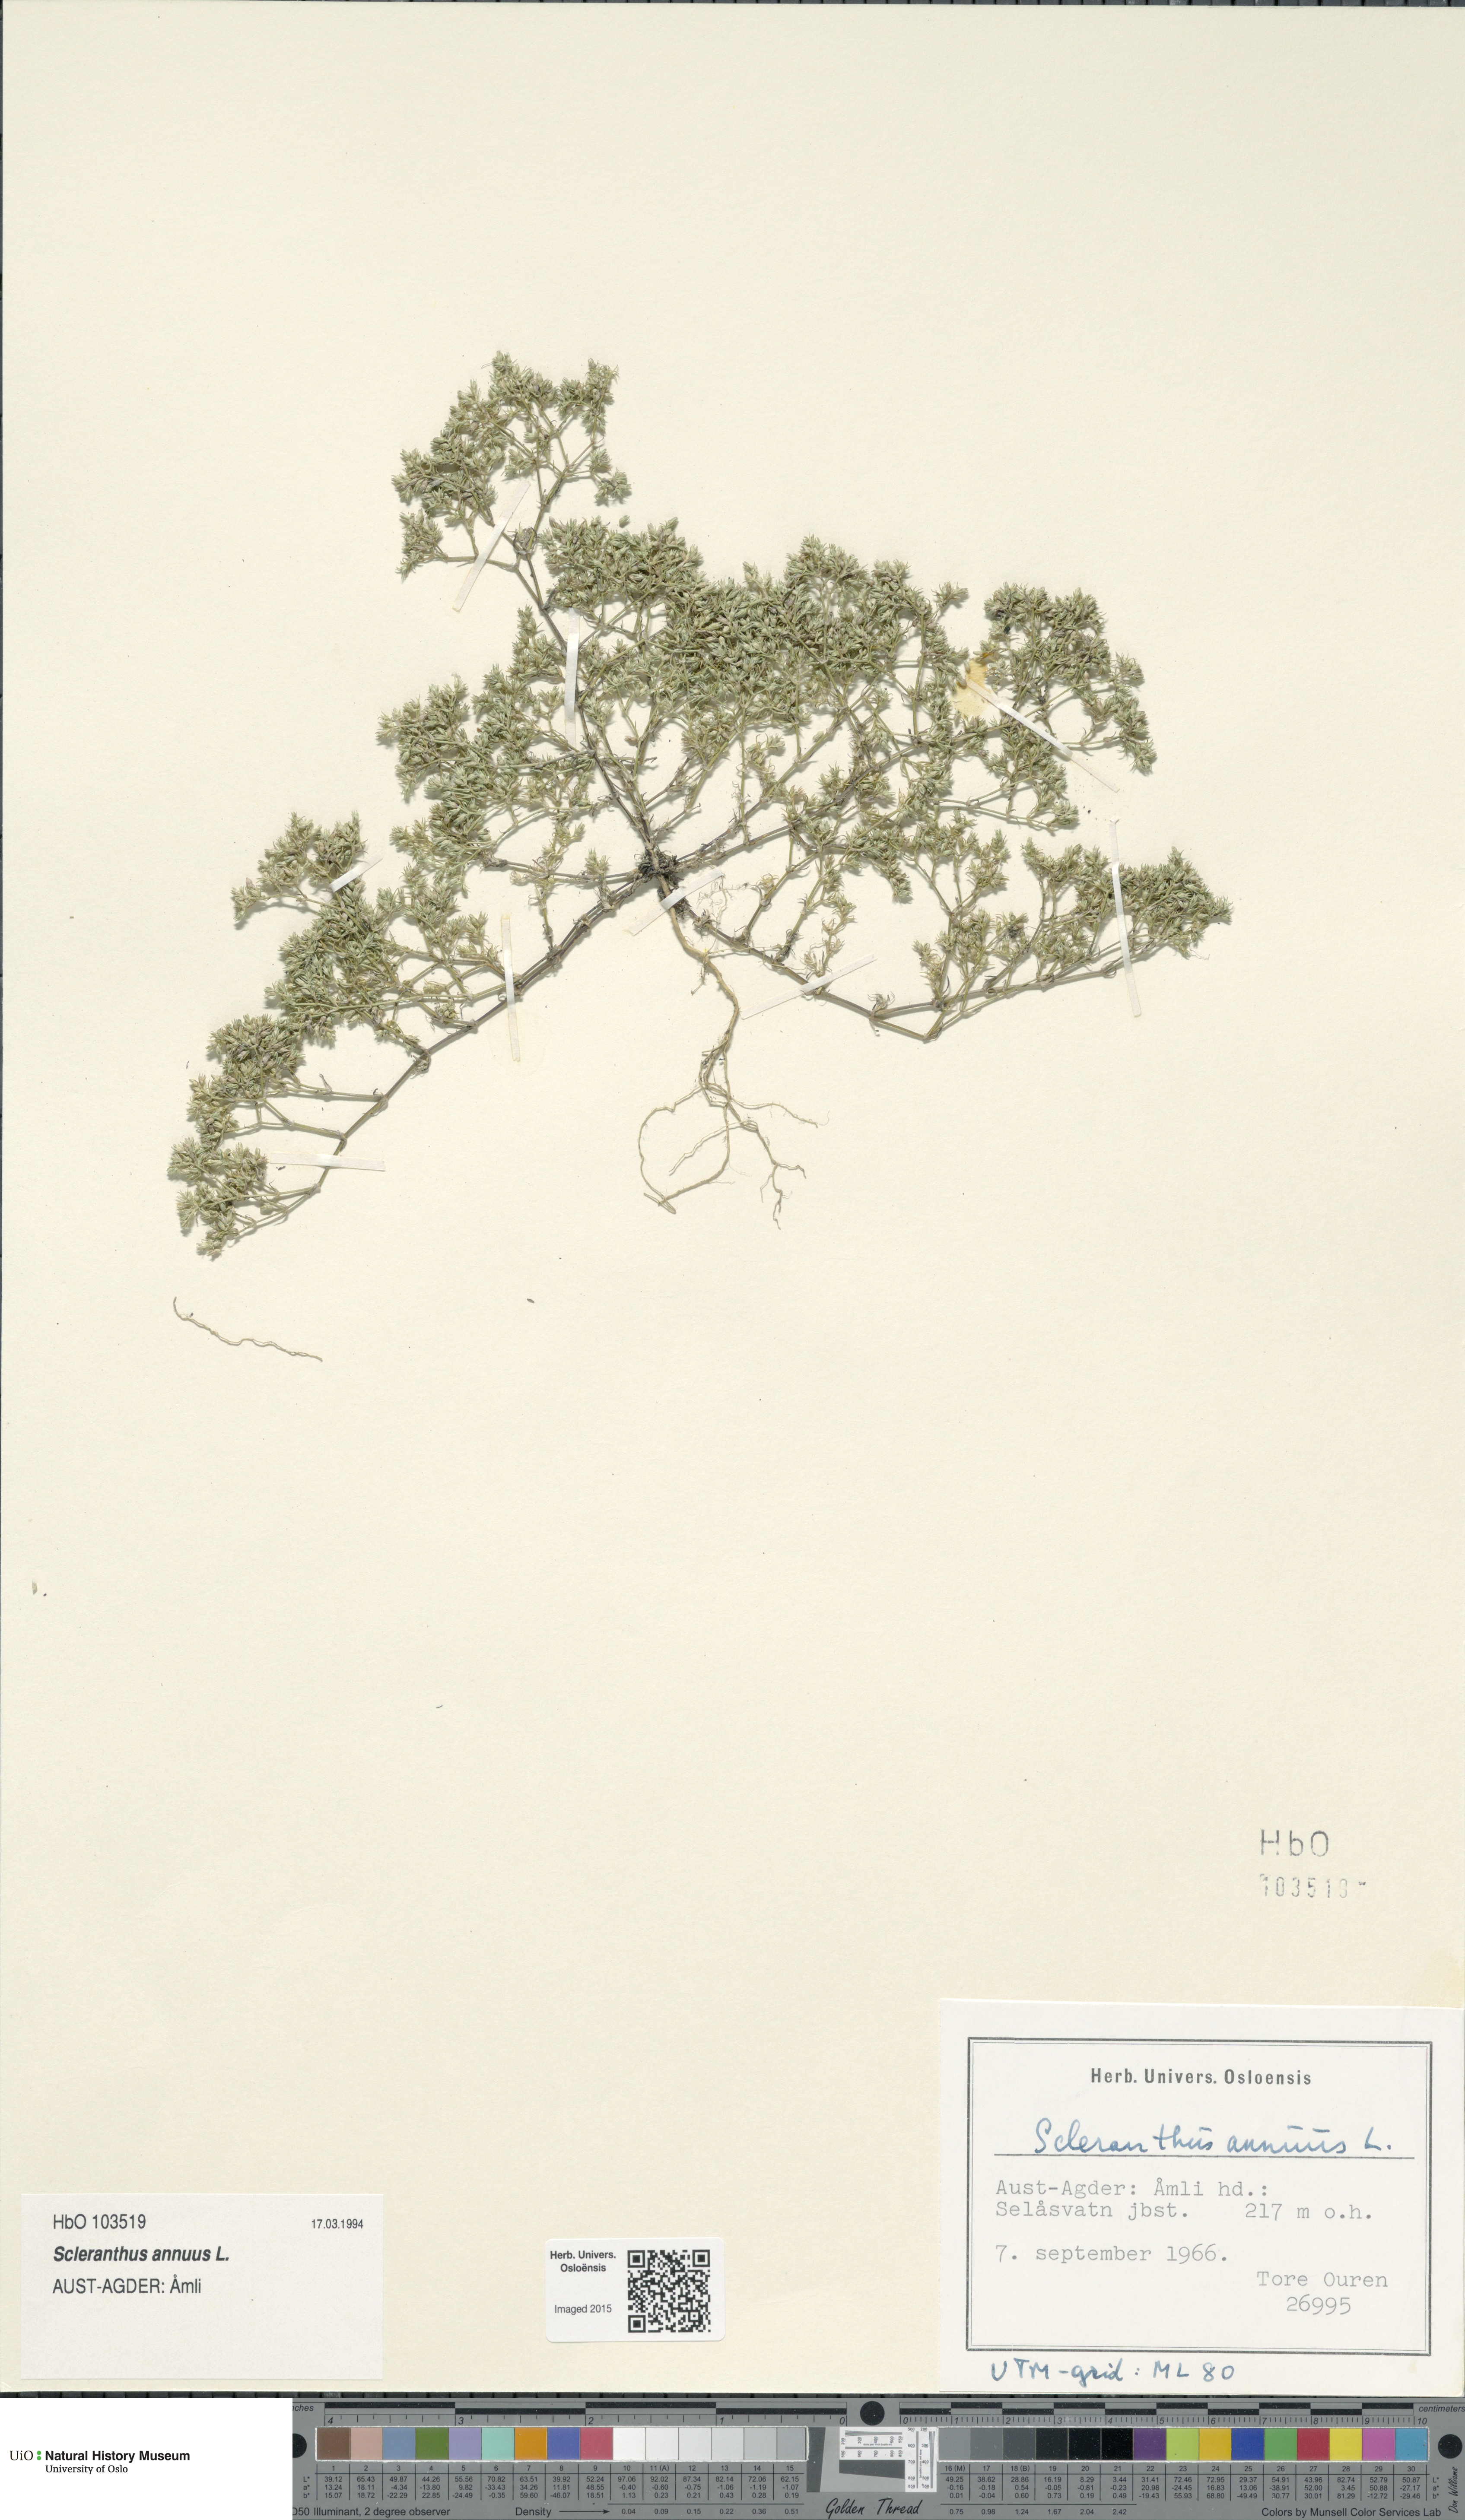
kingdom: Plantae
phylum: Tracheophyta
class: Magnoliopsida
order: Caryophyllales
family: Caryophyllaceae
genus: Scleranthus
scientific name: Scleranthus annuus
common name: Annual knawel
